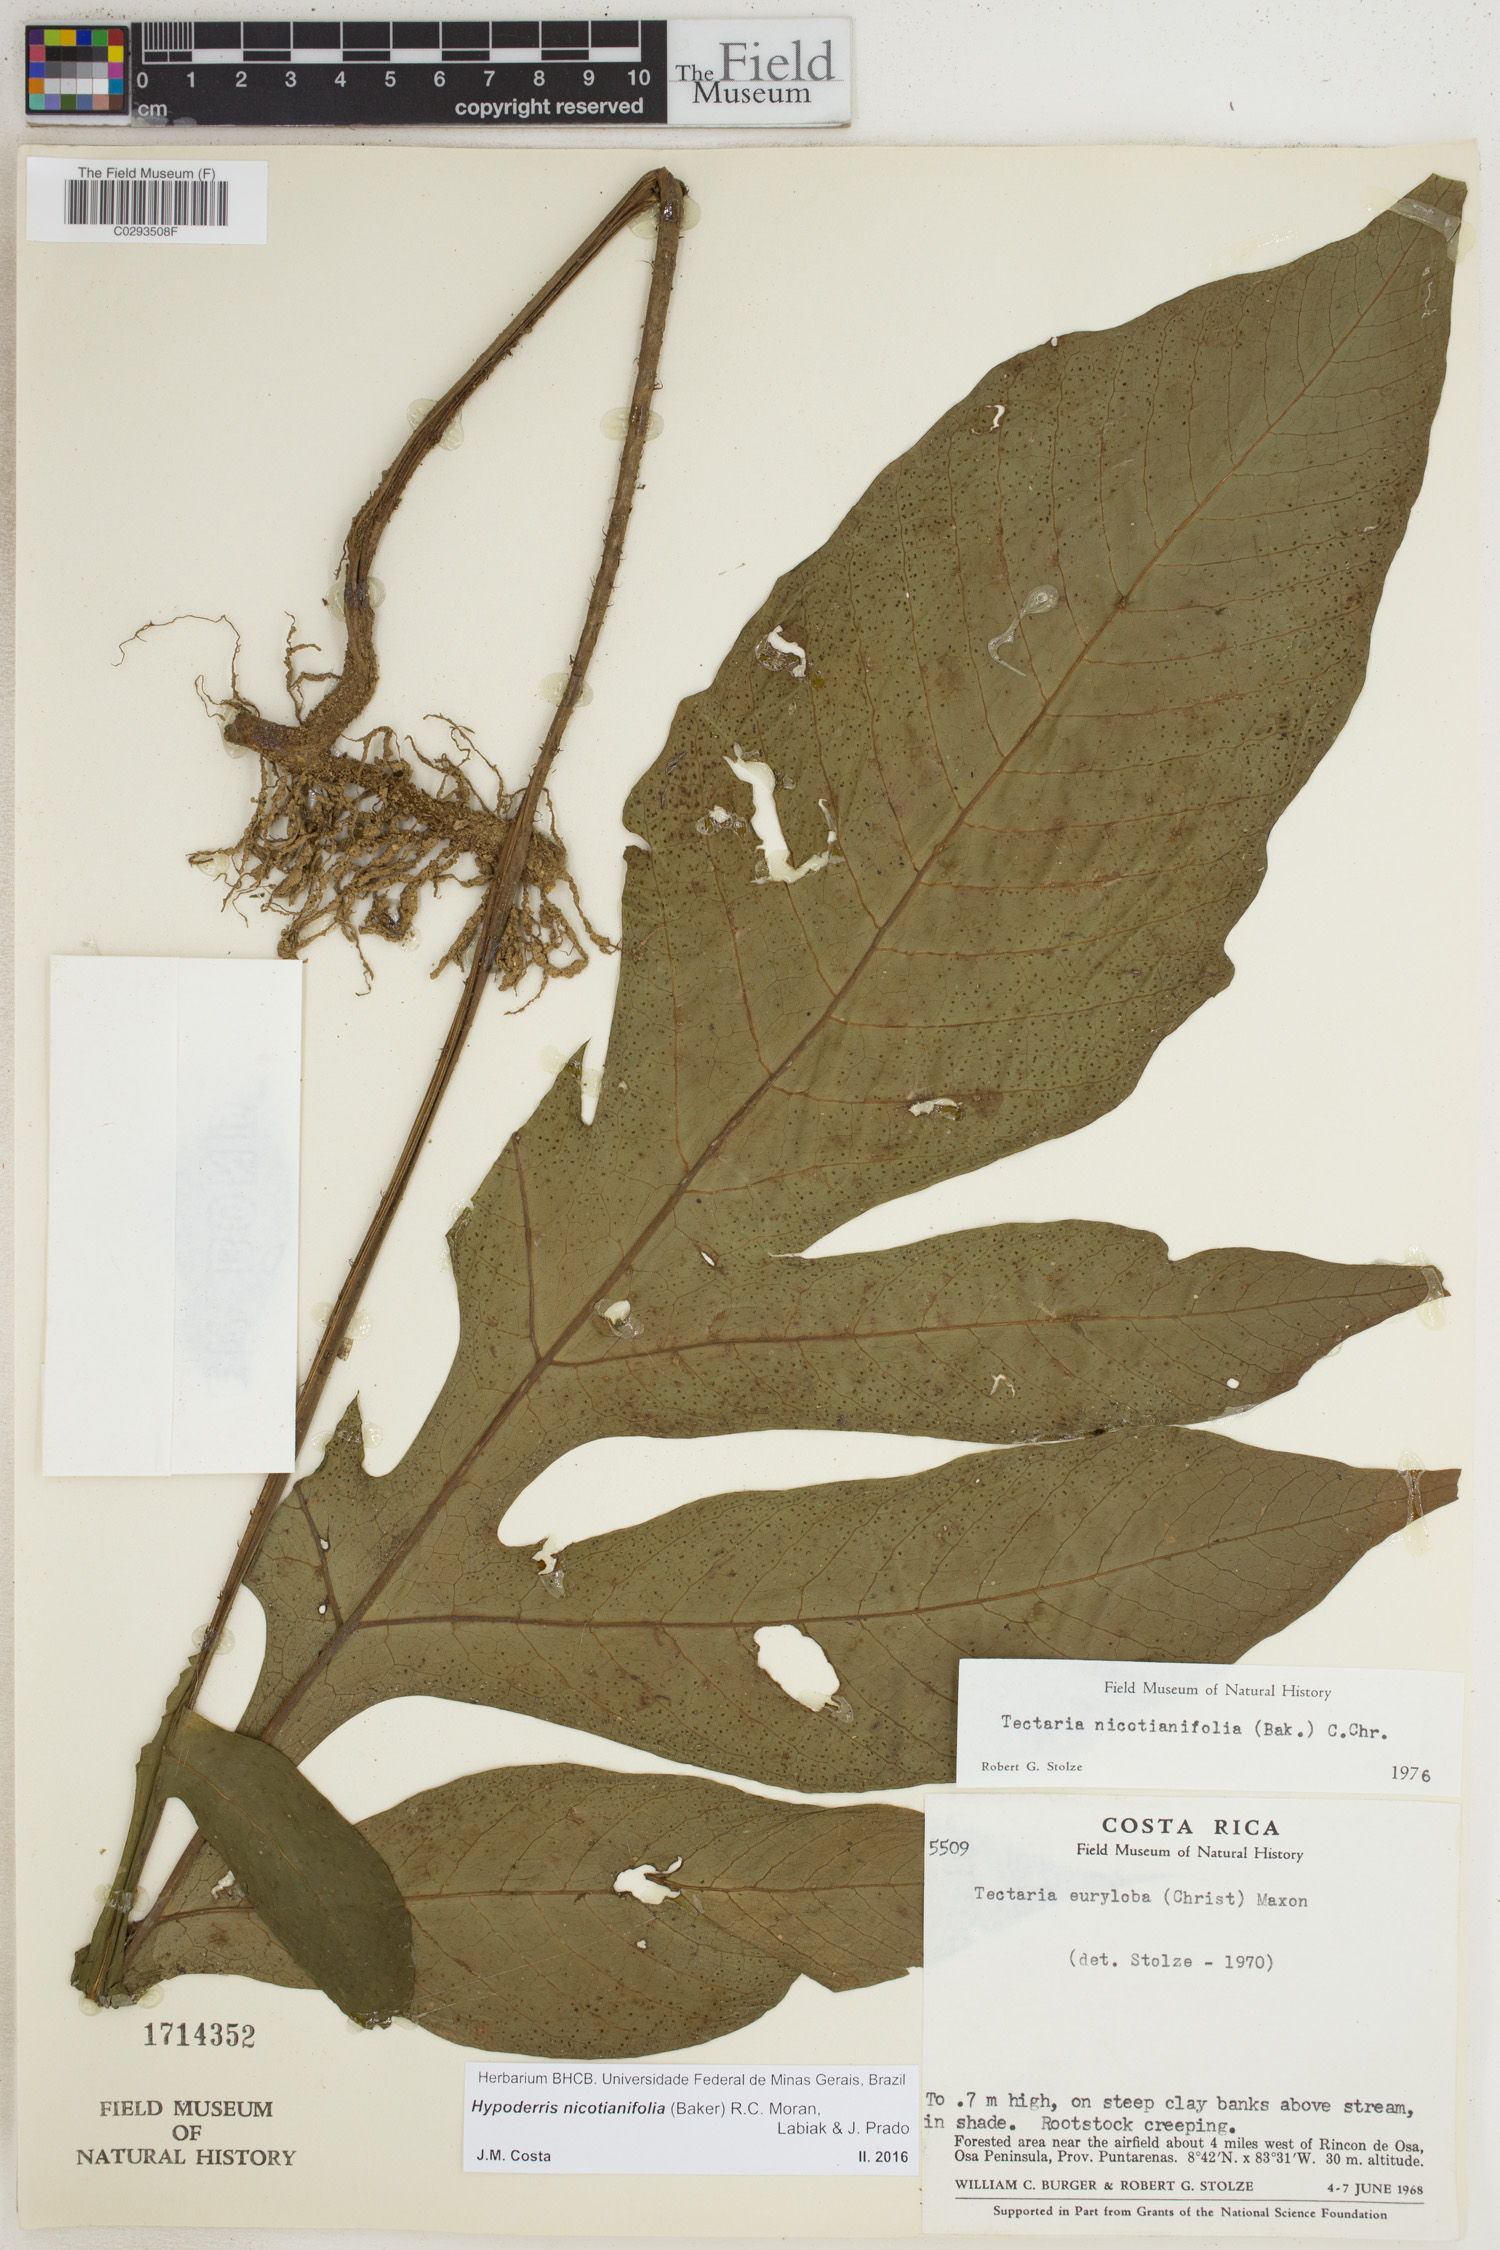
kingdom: Plantae
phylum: Tracheophyta
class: Polypodiopsida
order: Polypodiales
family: Tectariaceae
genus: Hypoderris
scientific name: Hypoderris nicotianifolia
